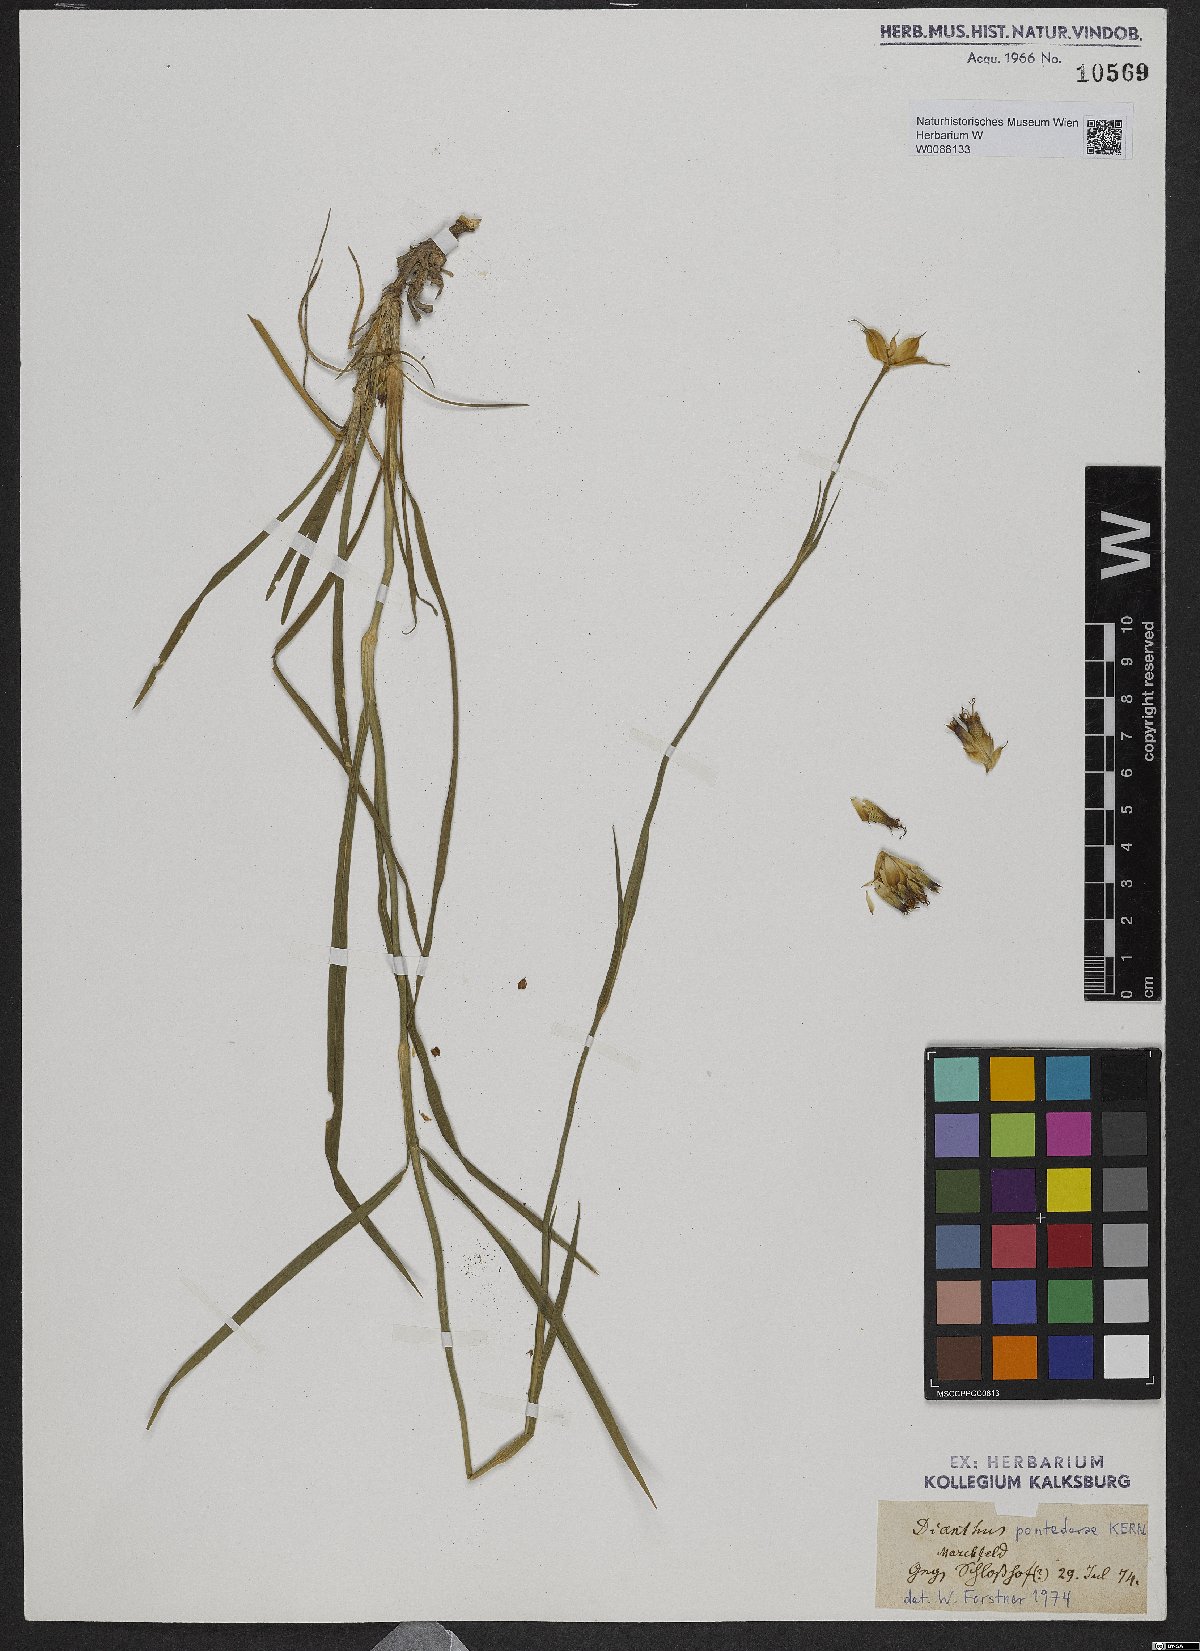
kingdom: Plantae
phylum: Tracheophyta
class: Magnoliopsida
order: Caryophyllales
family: Caryophyllaceae
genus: Dianthus
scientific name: Dianthus pontederae
